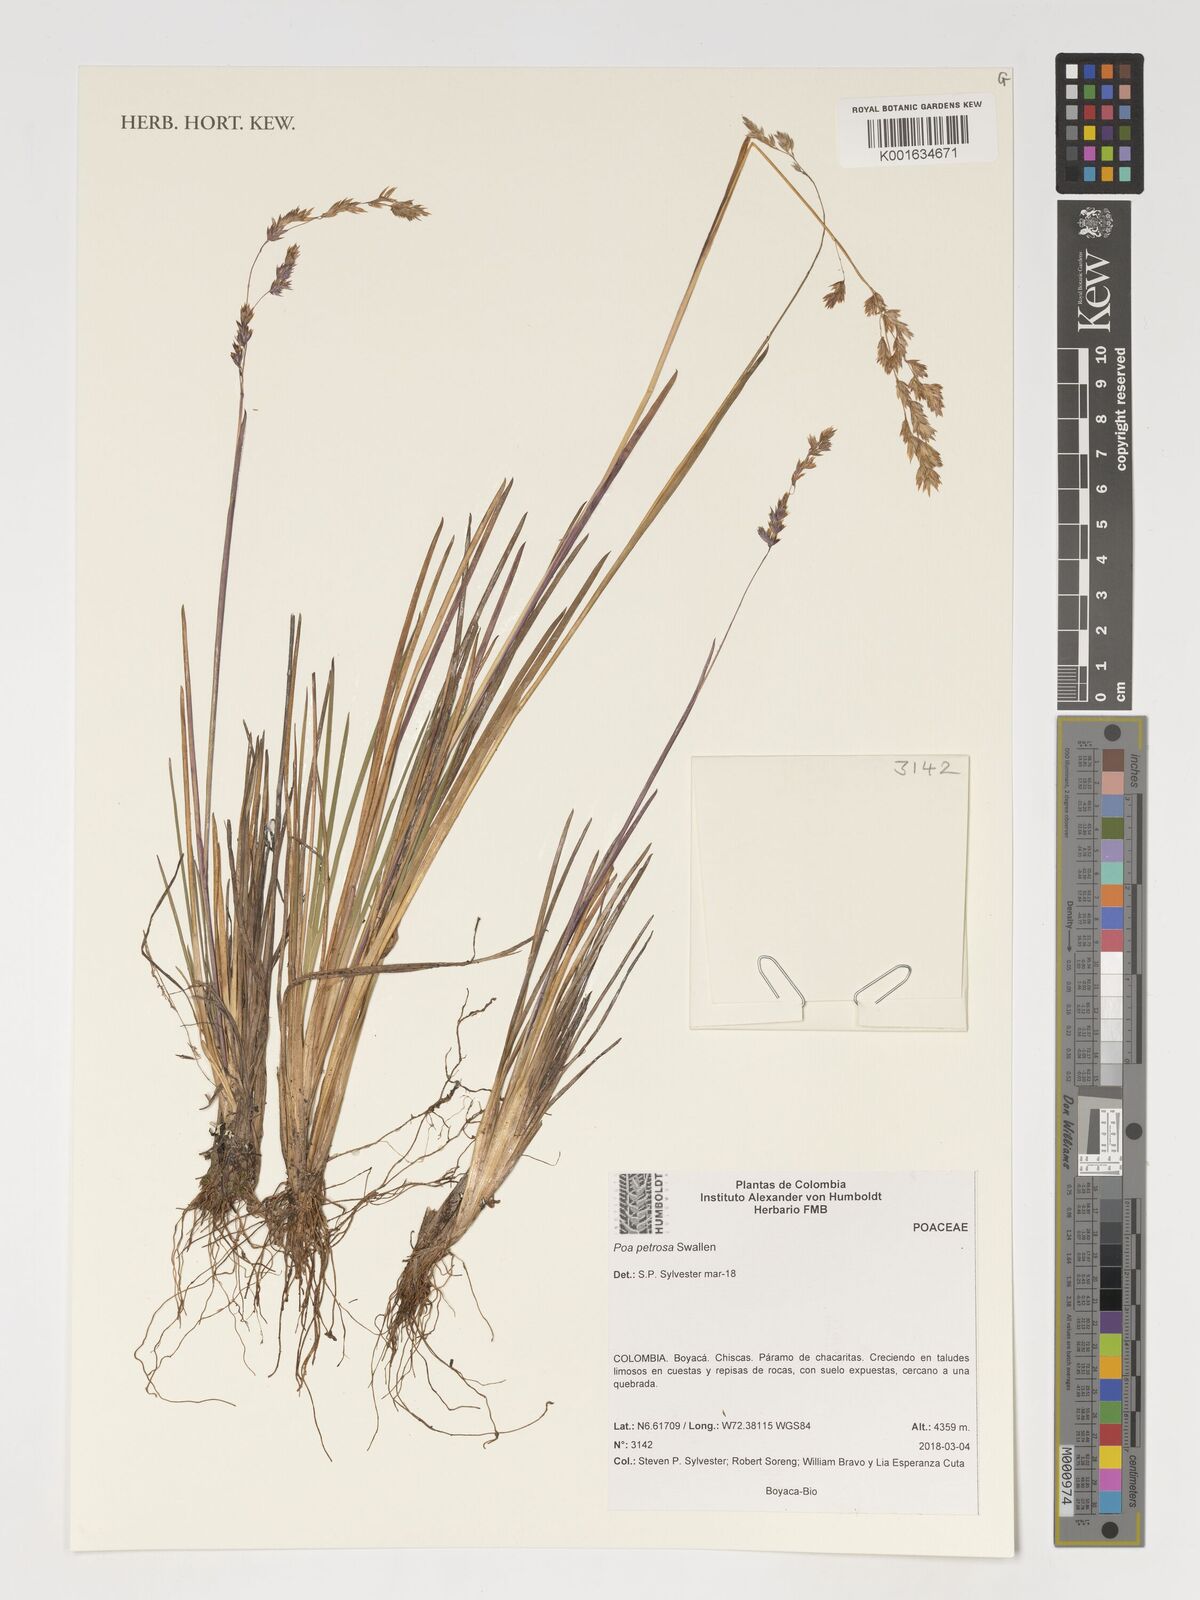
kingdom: Plantae
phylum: Tracheophyta
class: Liliopsida
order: Poales
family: Poaceae
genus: Poa
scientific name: Poa petrosa
